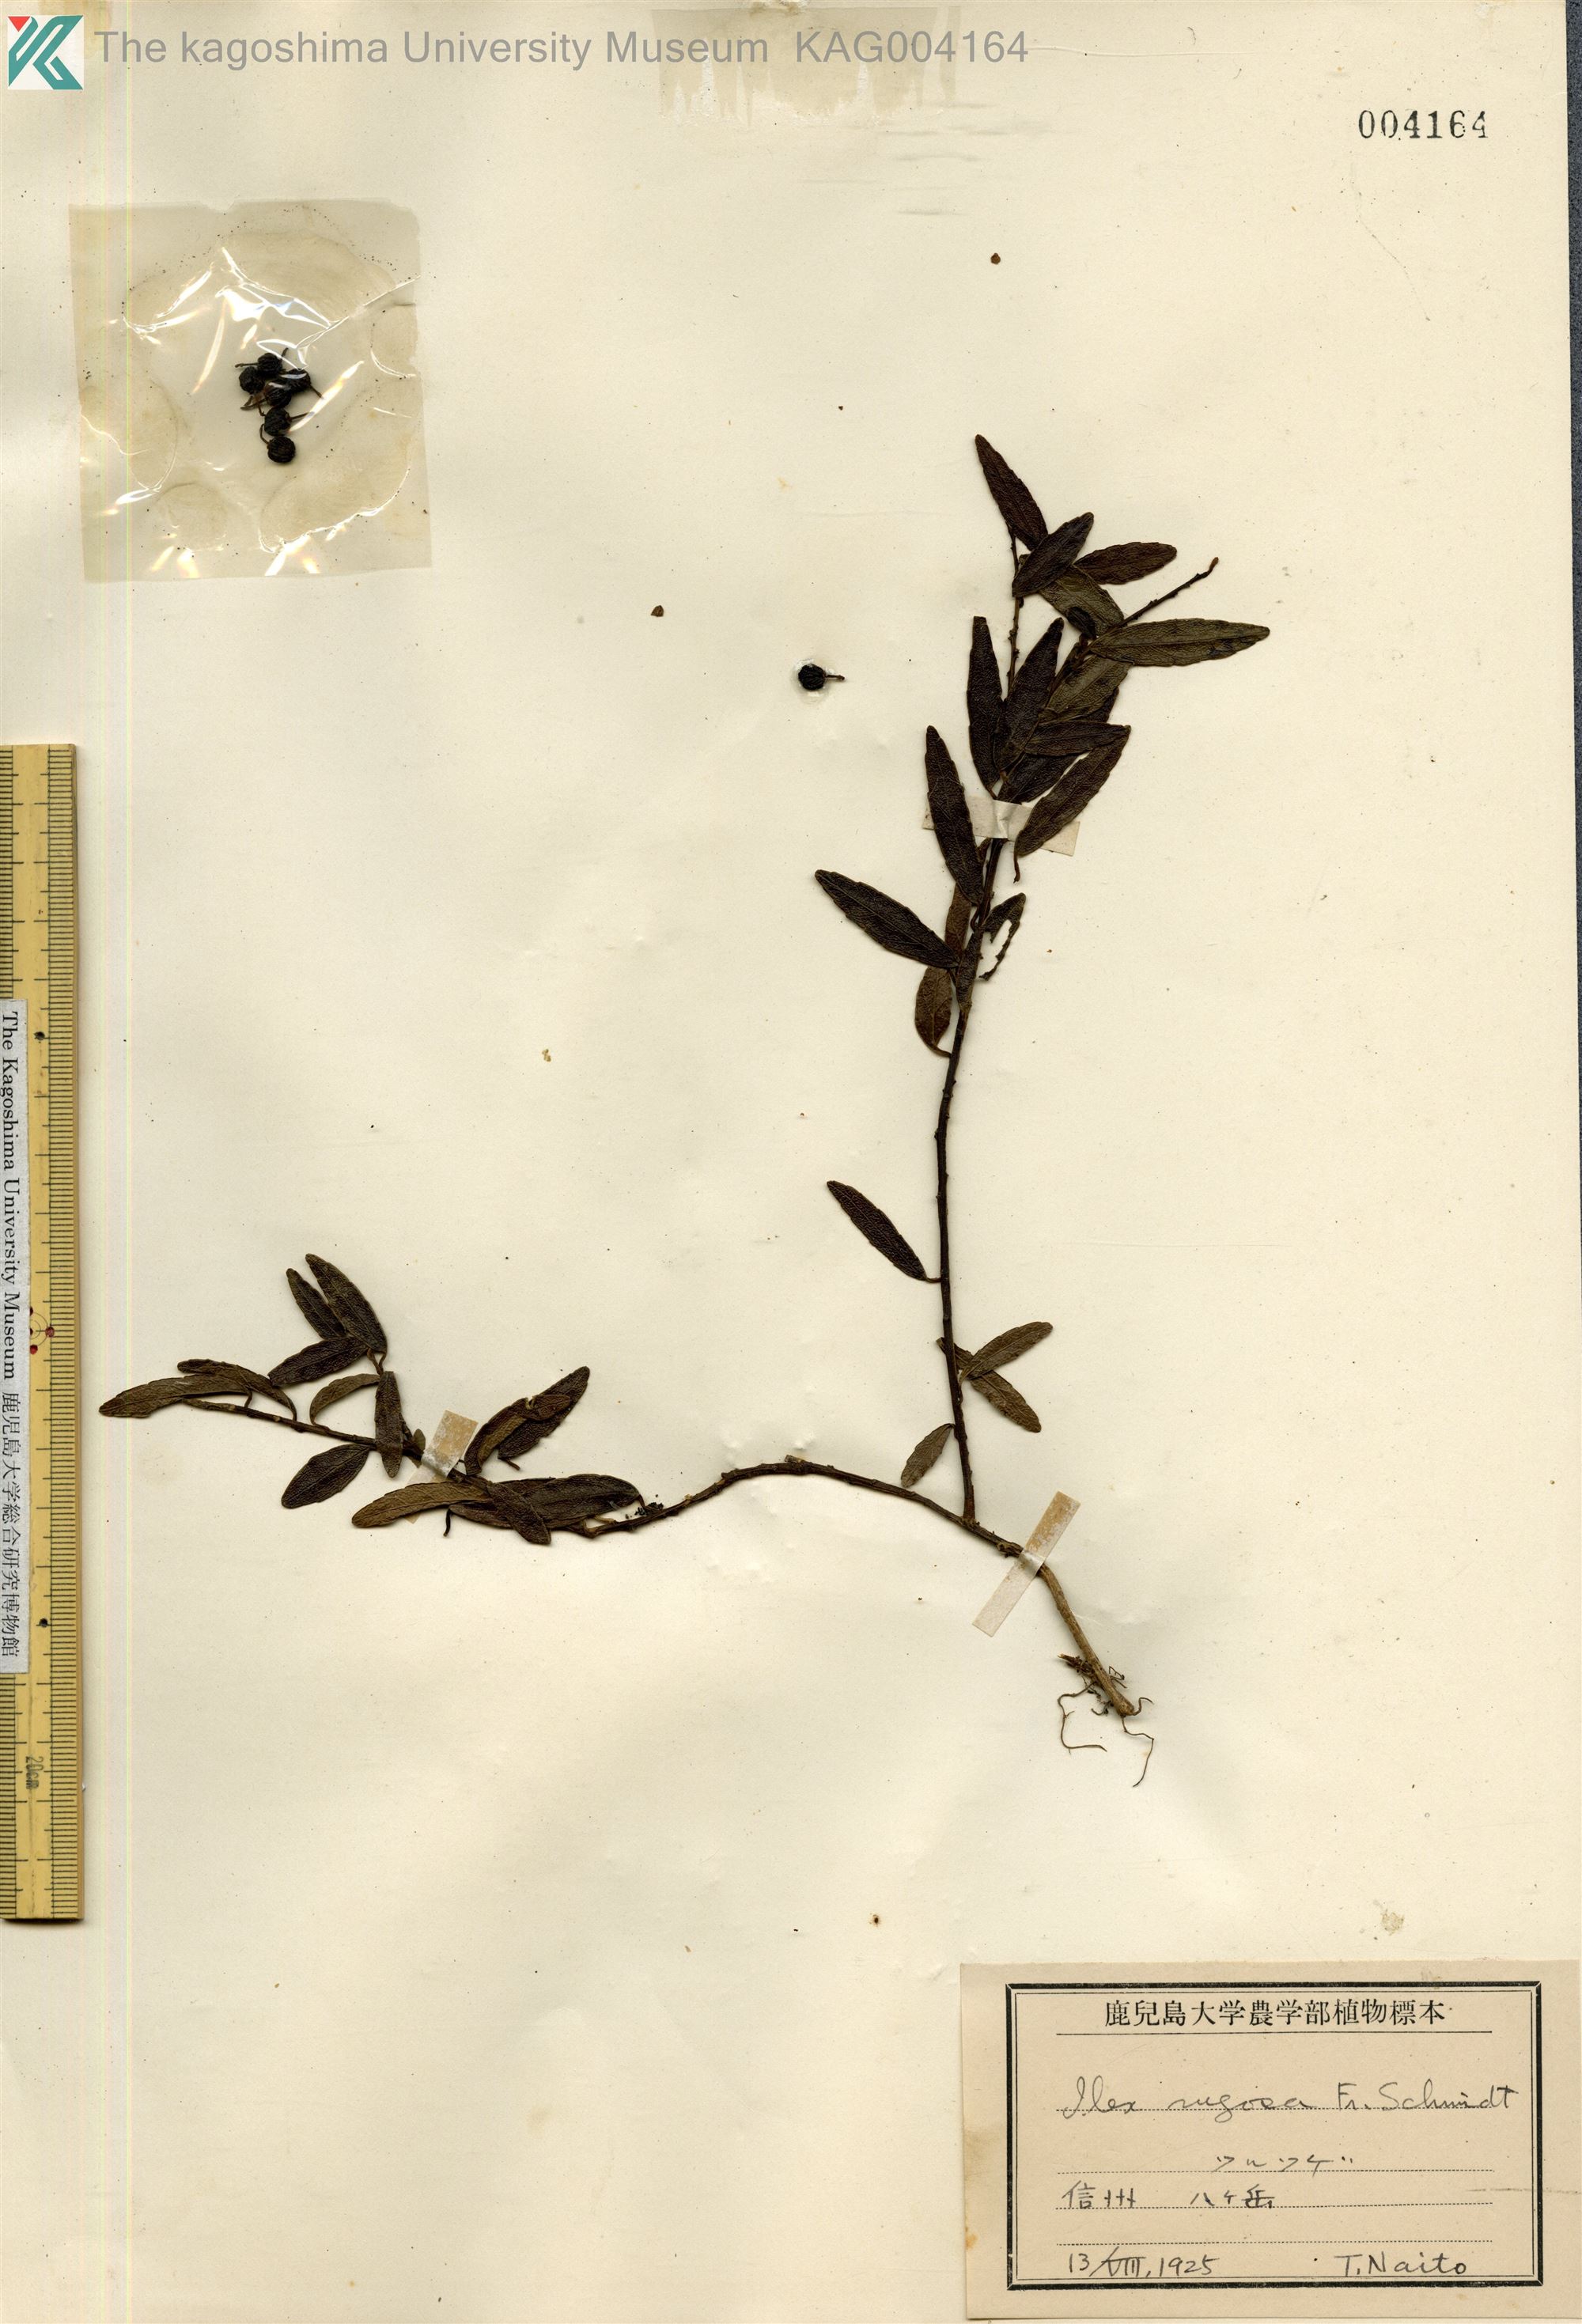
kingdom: Plantae
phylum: Tracheophyta
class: Magnoliopsida
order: Aquifoliales
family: Aquifoliaceae
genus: Ilex
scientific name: Ilex rugosa
